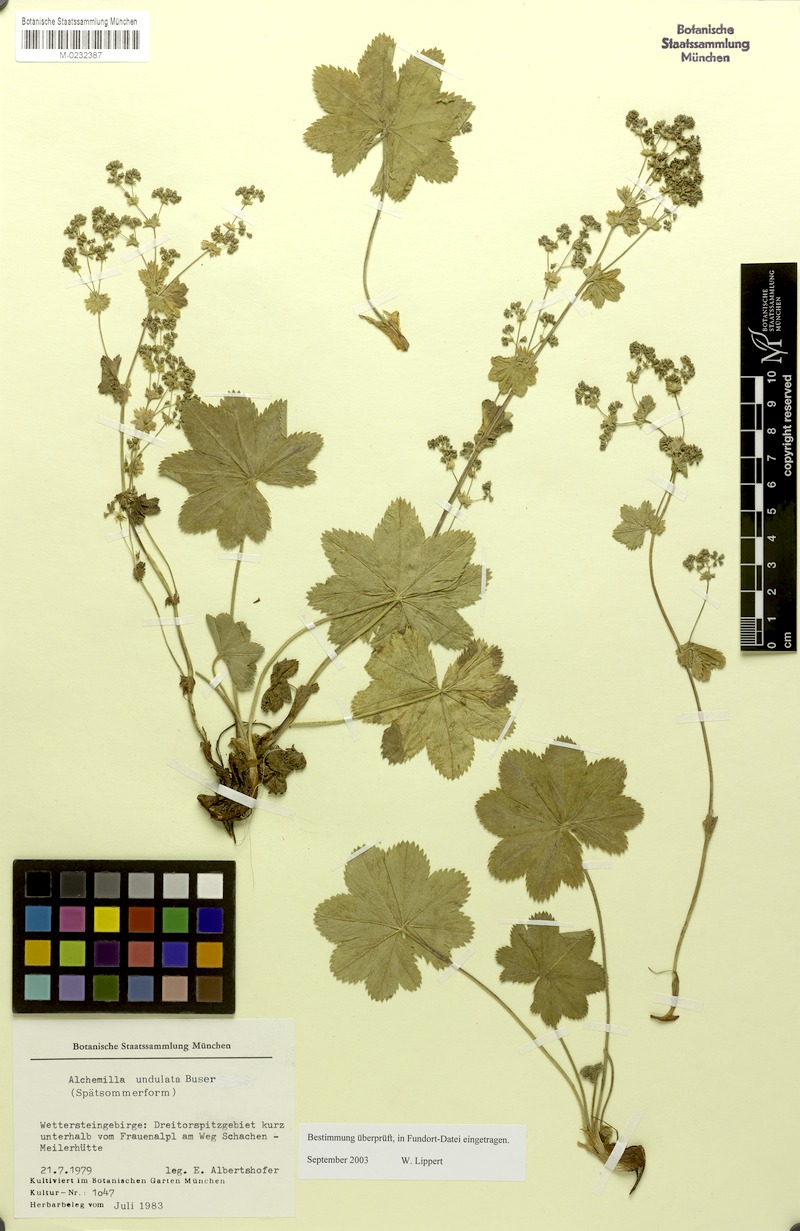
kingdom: Plantae
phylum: Tracheophyta
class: Magnoliopsida
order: Rosales
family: Rosaceae
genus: Alchemilla
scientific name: Alchemilla undulata
